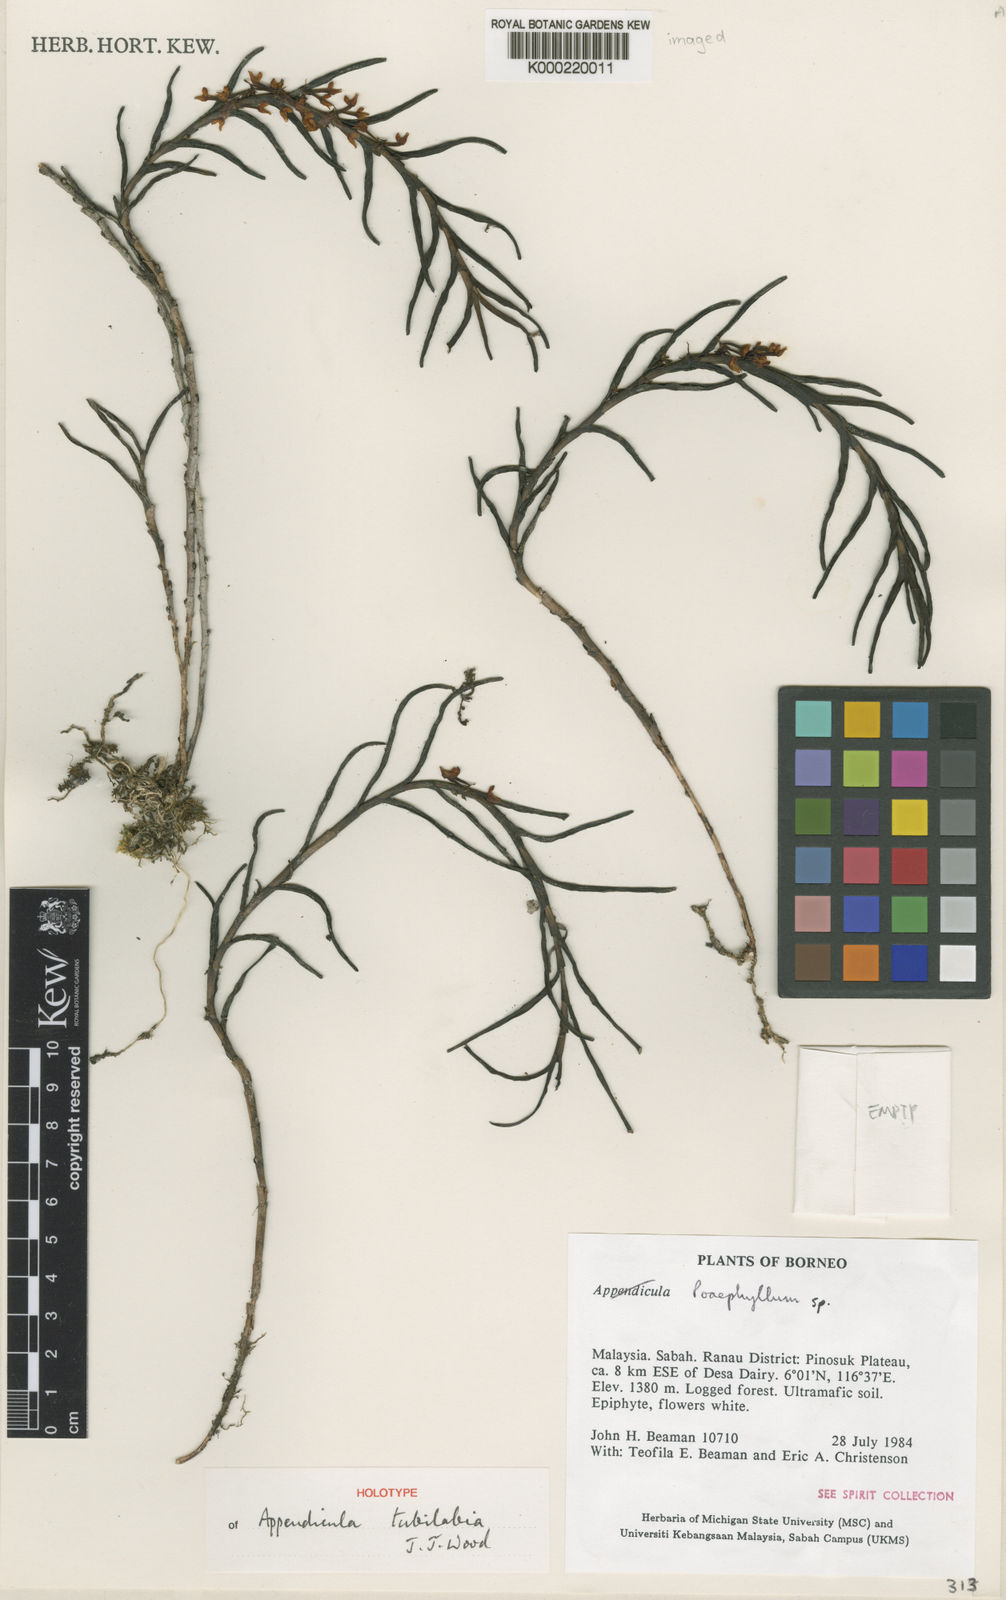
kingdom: Plantae
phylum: Tracheophyta
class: Liliopsida
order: Asparagales
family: Orchidaceae
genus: Appendicula
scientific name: Appendicula tubilabia
